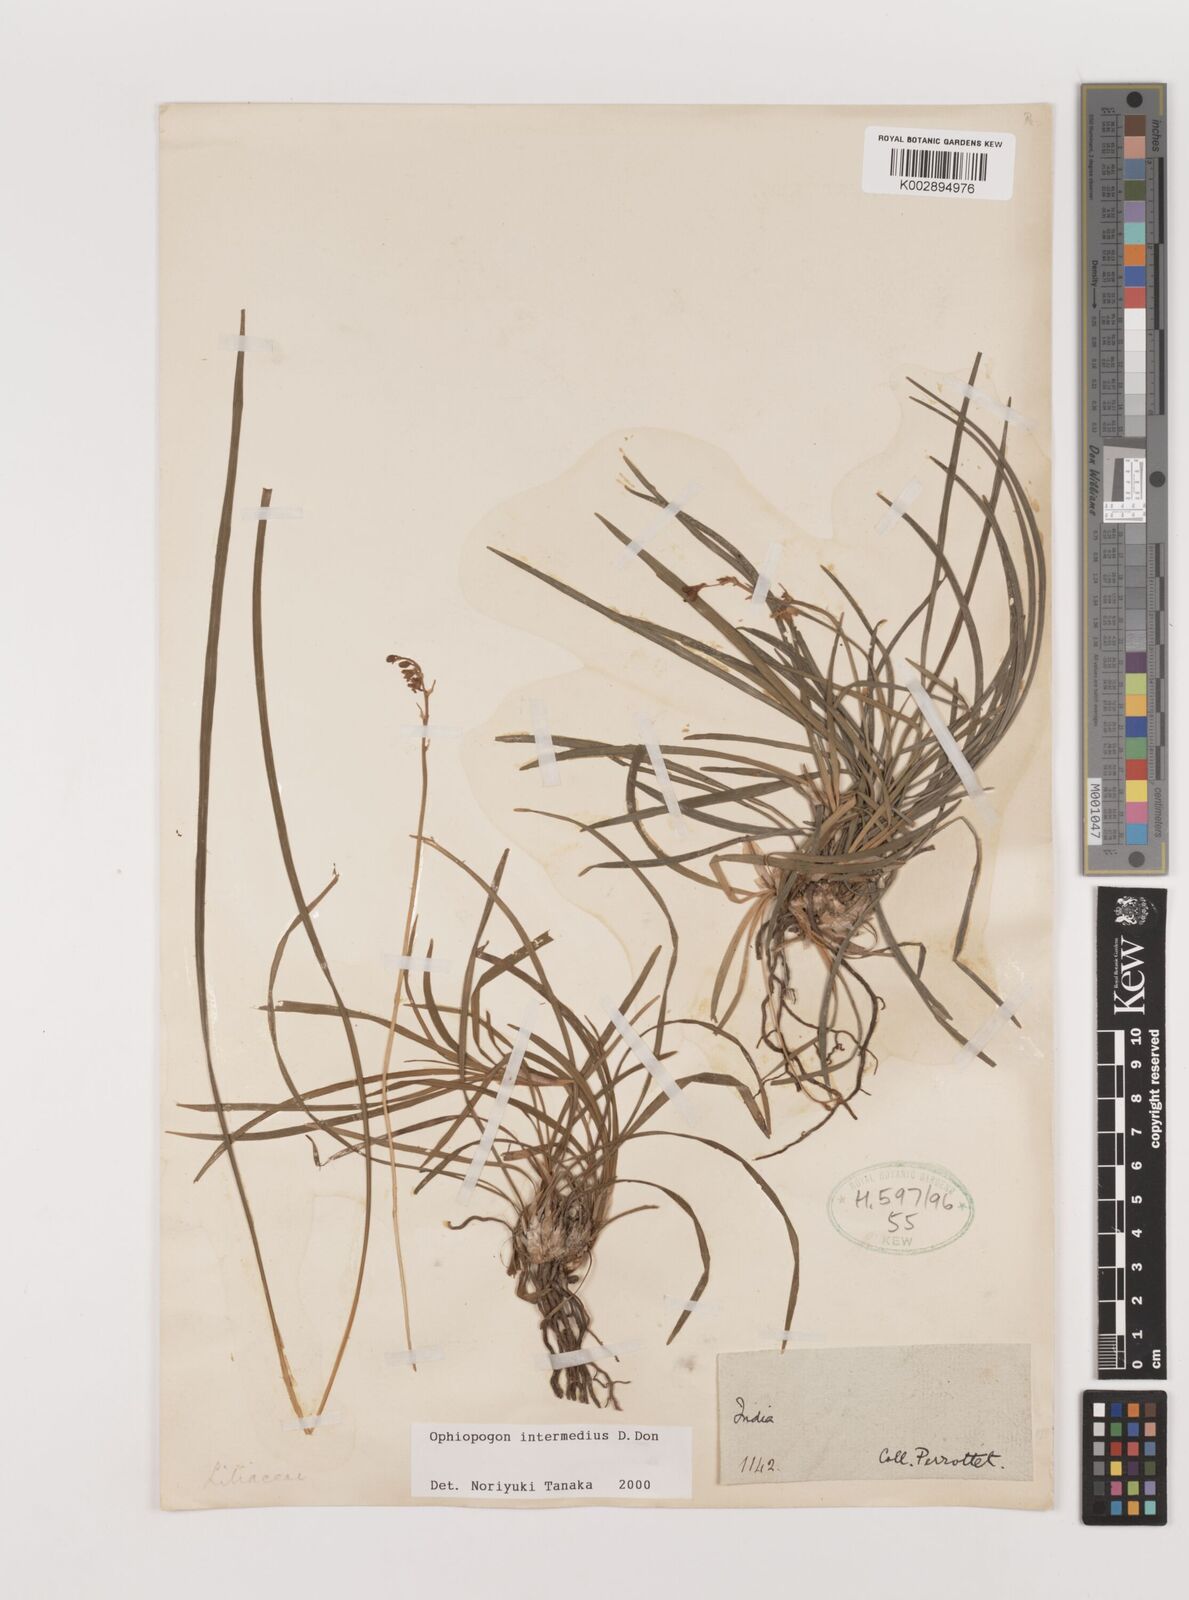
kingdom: Plantae
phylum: Tracheophyta
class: Liliopsida
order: Asparagales
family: Asparagaceae
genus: Ophiopogon
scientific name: Ophiopogon intermedius
